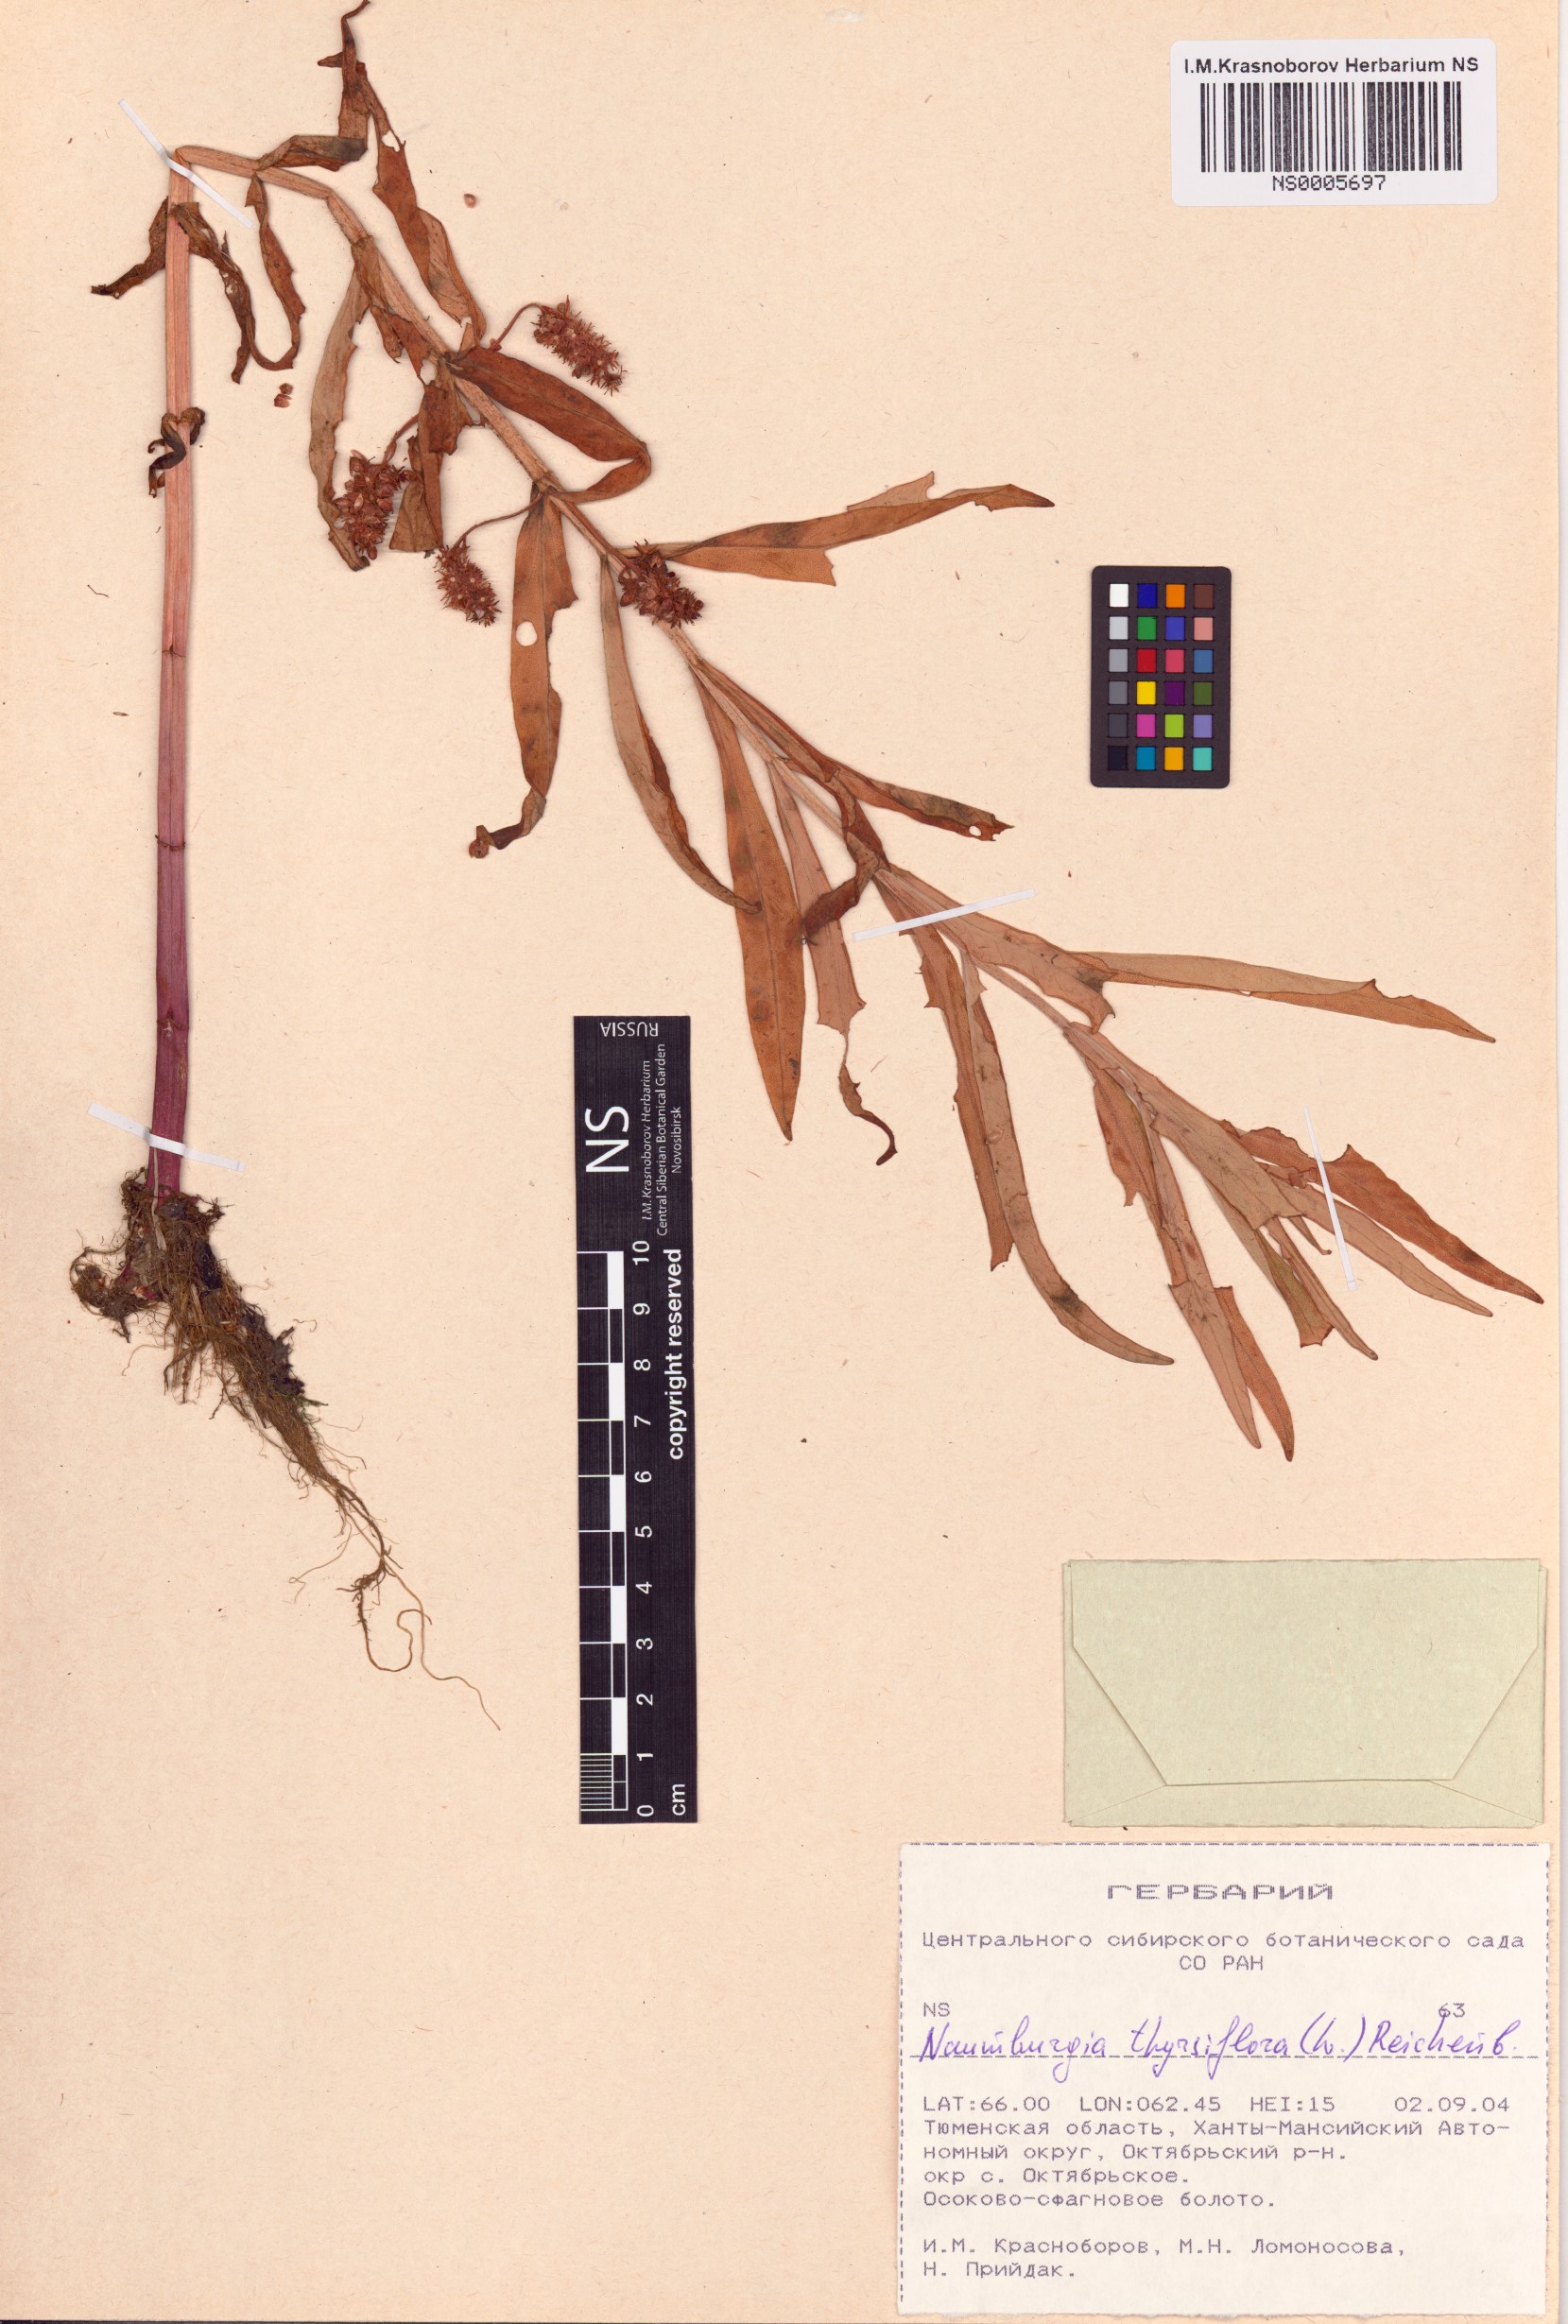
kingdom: Plantae
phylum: Tracheophyta
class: Magnoliopsida
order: Ericales
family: Primulaceae
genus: Lysimachia
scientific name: Lysimachia thyrsiflora
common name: Tufted loosestrife
